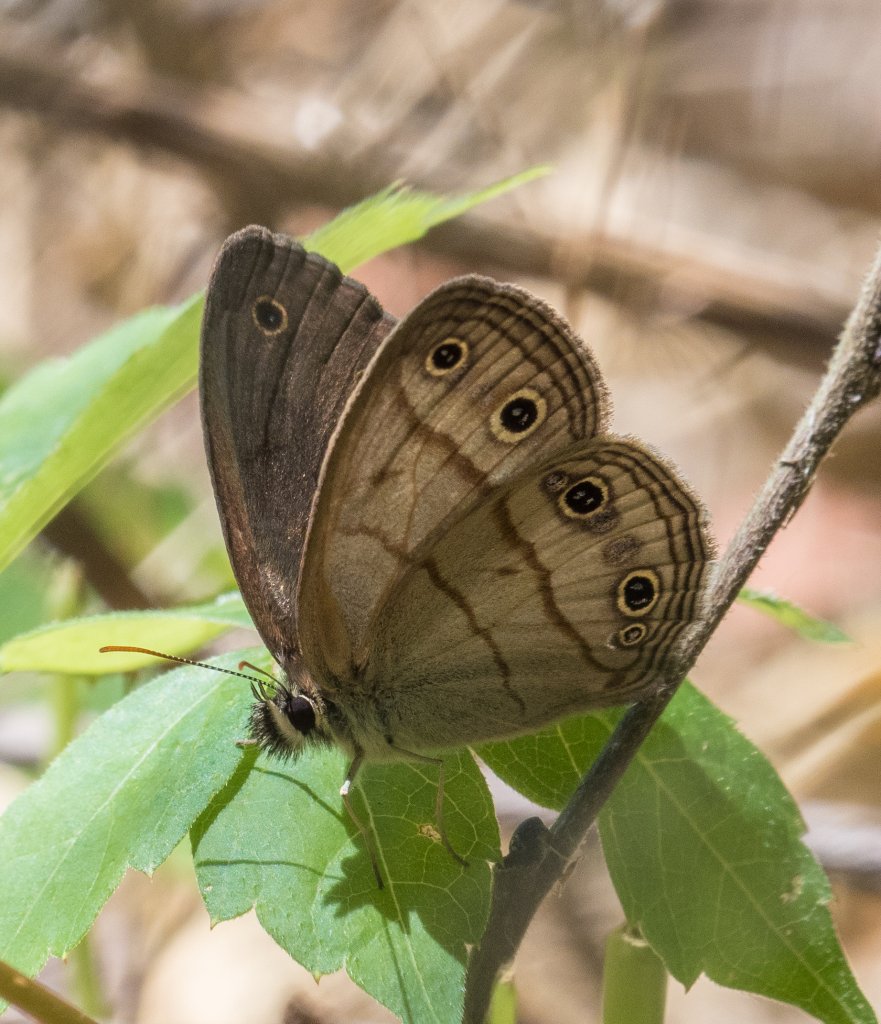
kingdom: Animalia
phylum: Arthropoda
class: Insecta
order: Lepidoptera
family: Nymphalidae
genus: Euptychia
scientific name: Euptychia cymela
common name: Little Wood Satyr
